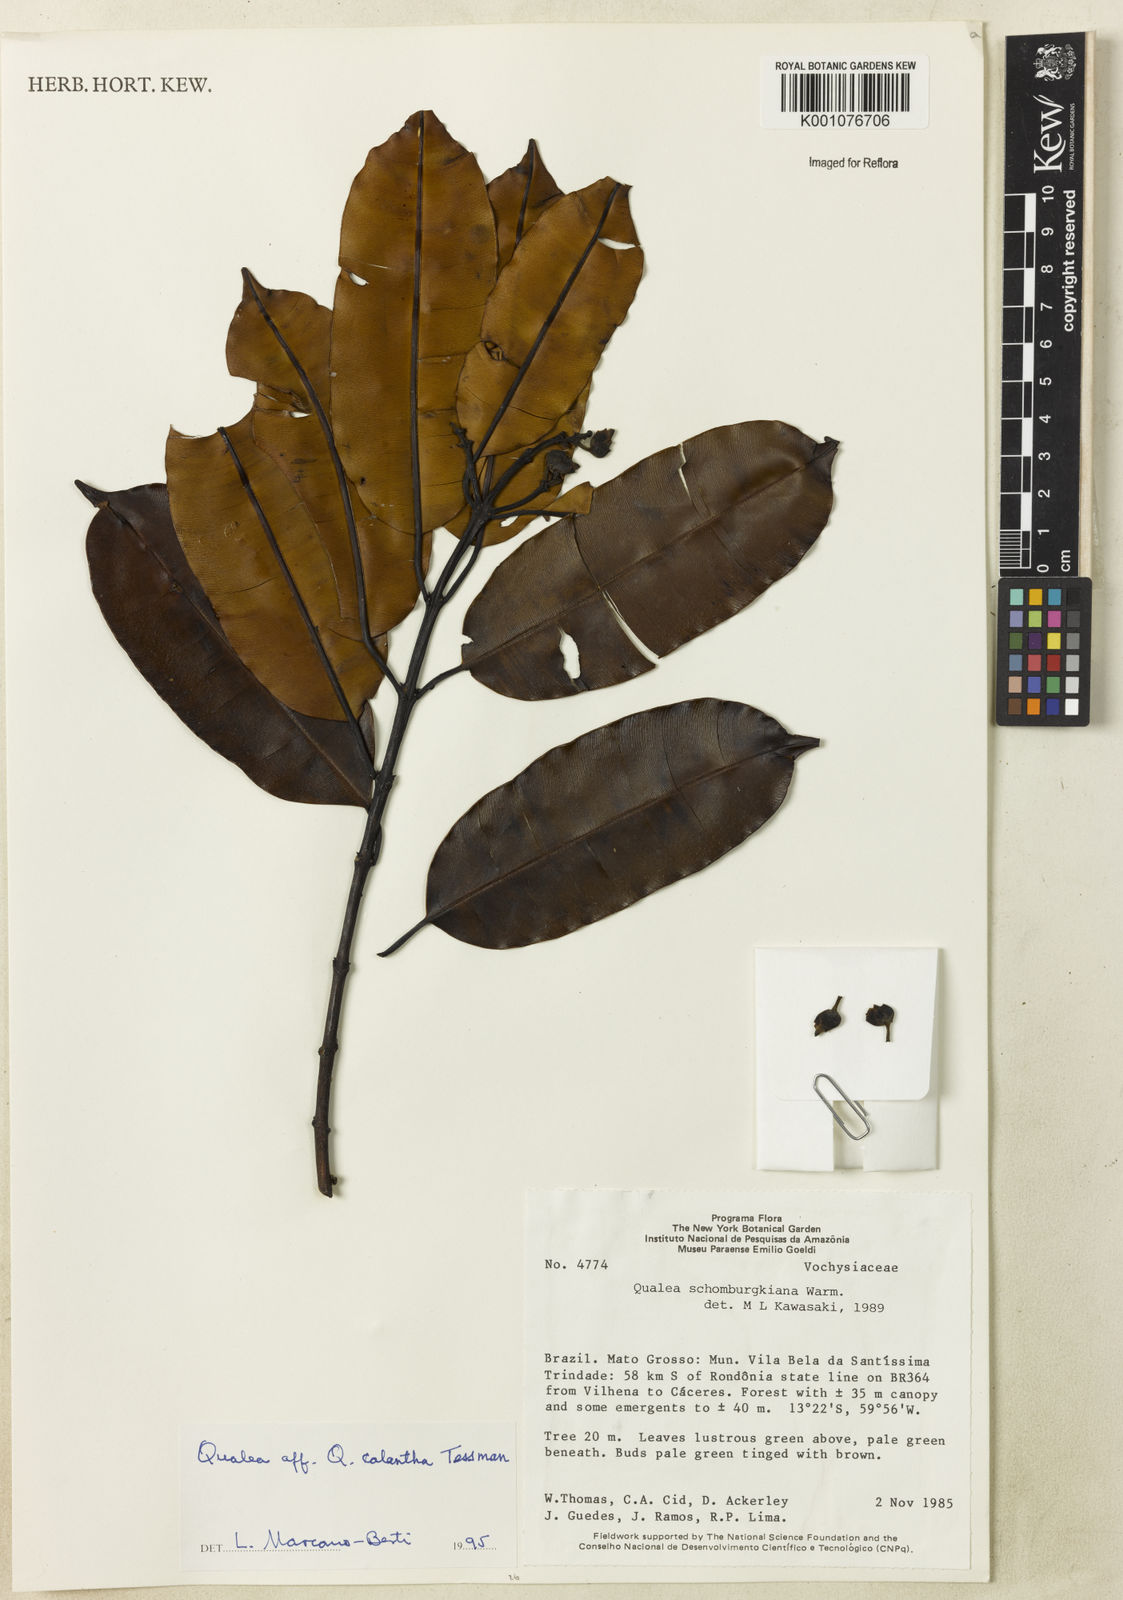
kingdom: Plantae
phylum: Tracheophyta
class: Magnoliopsida
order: Myrtales
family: Vochysiaceae
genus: Qualea
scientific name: Qualea calantha
